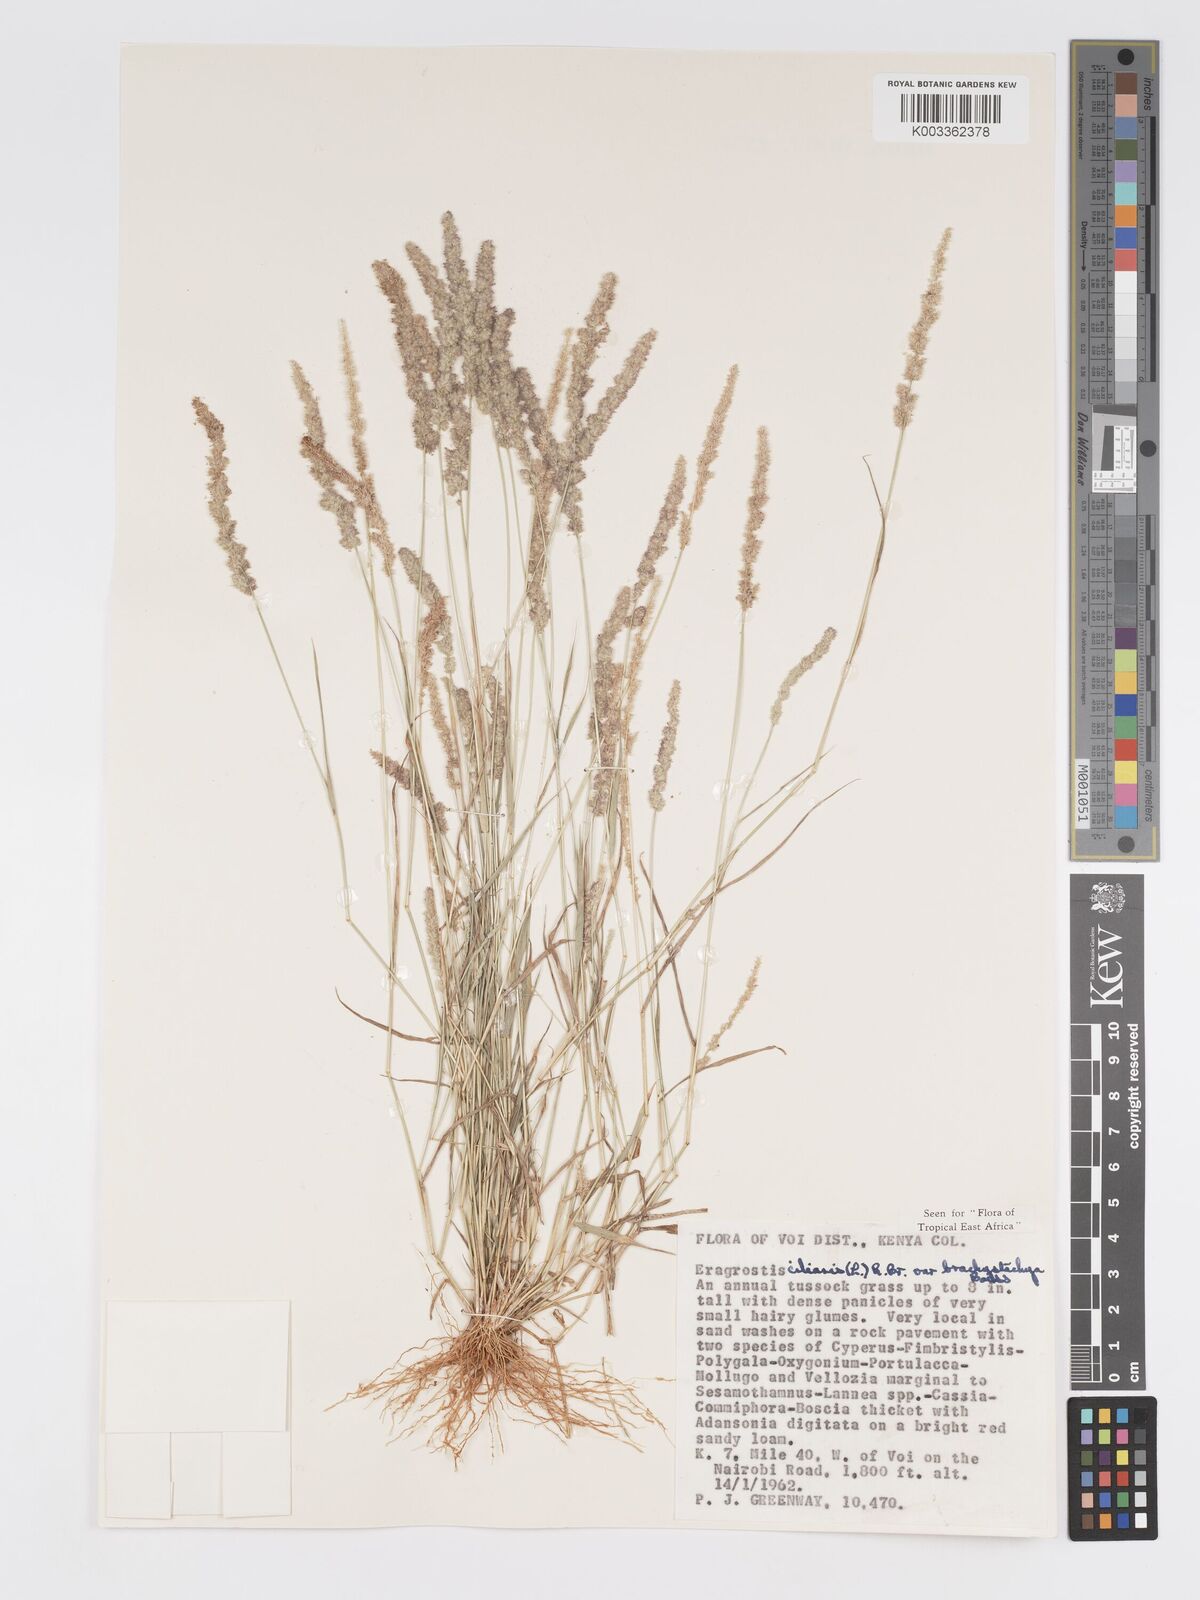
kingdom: Plantae
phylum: Tracheophyta
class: Liliopsida
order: Poales
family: Poaceae
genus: Eragrostis
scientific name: Eragrostis ciliaris
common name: Gophertail lovegrass
